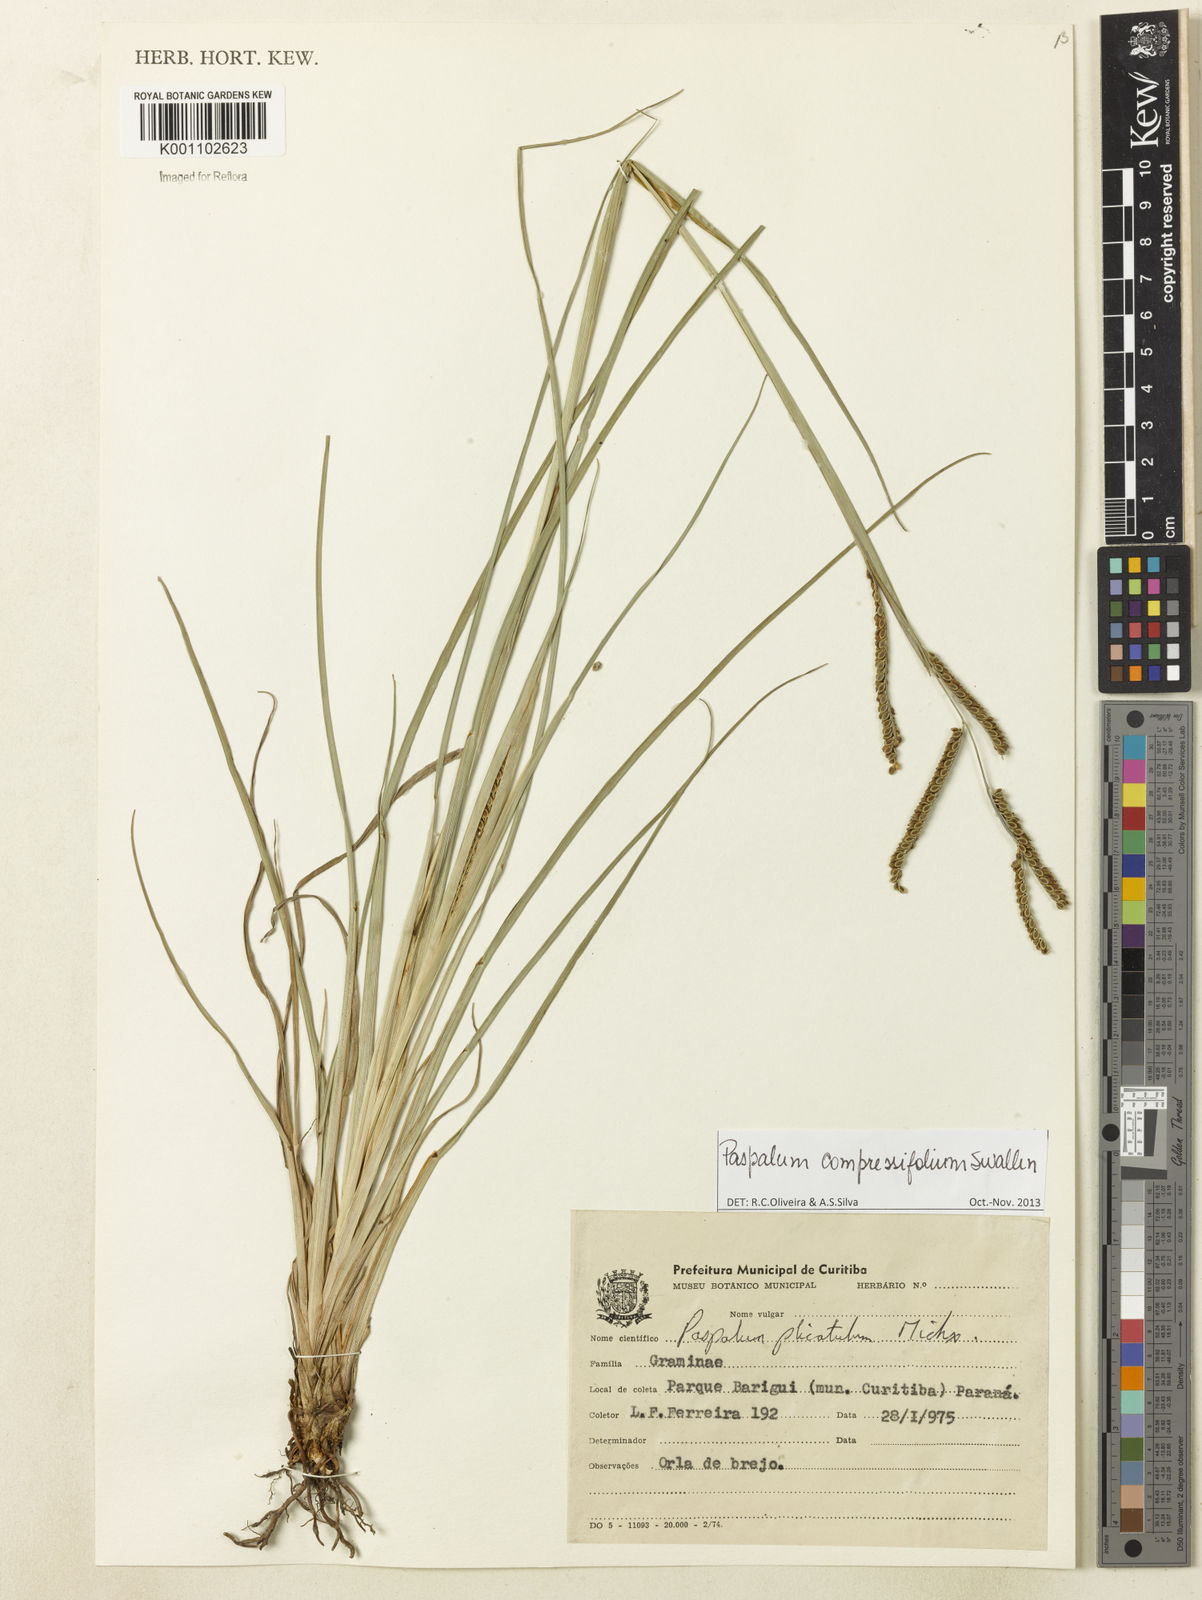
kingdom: Plantae
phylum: Tracheophyta
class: Liliopsida
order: Poales
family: Poaceae
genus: Paspalum
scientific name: Paspalum
